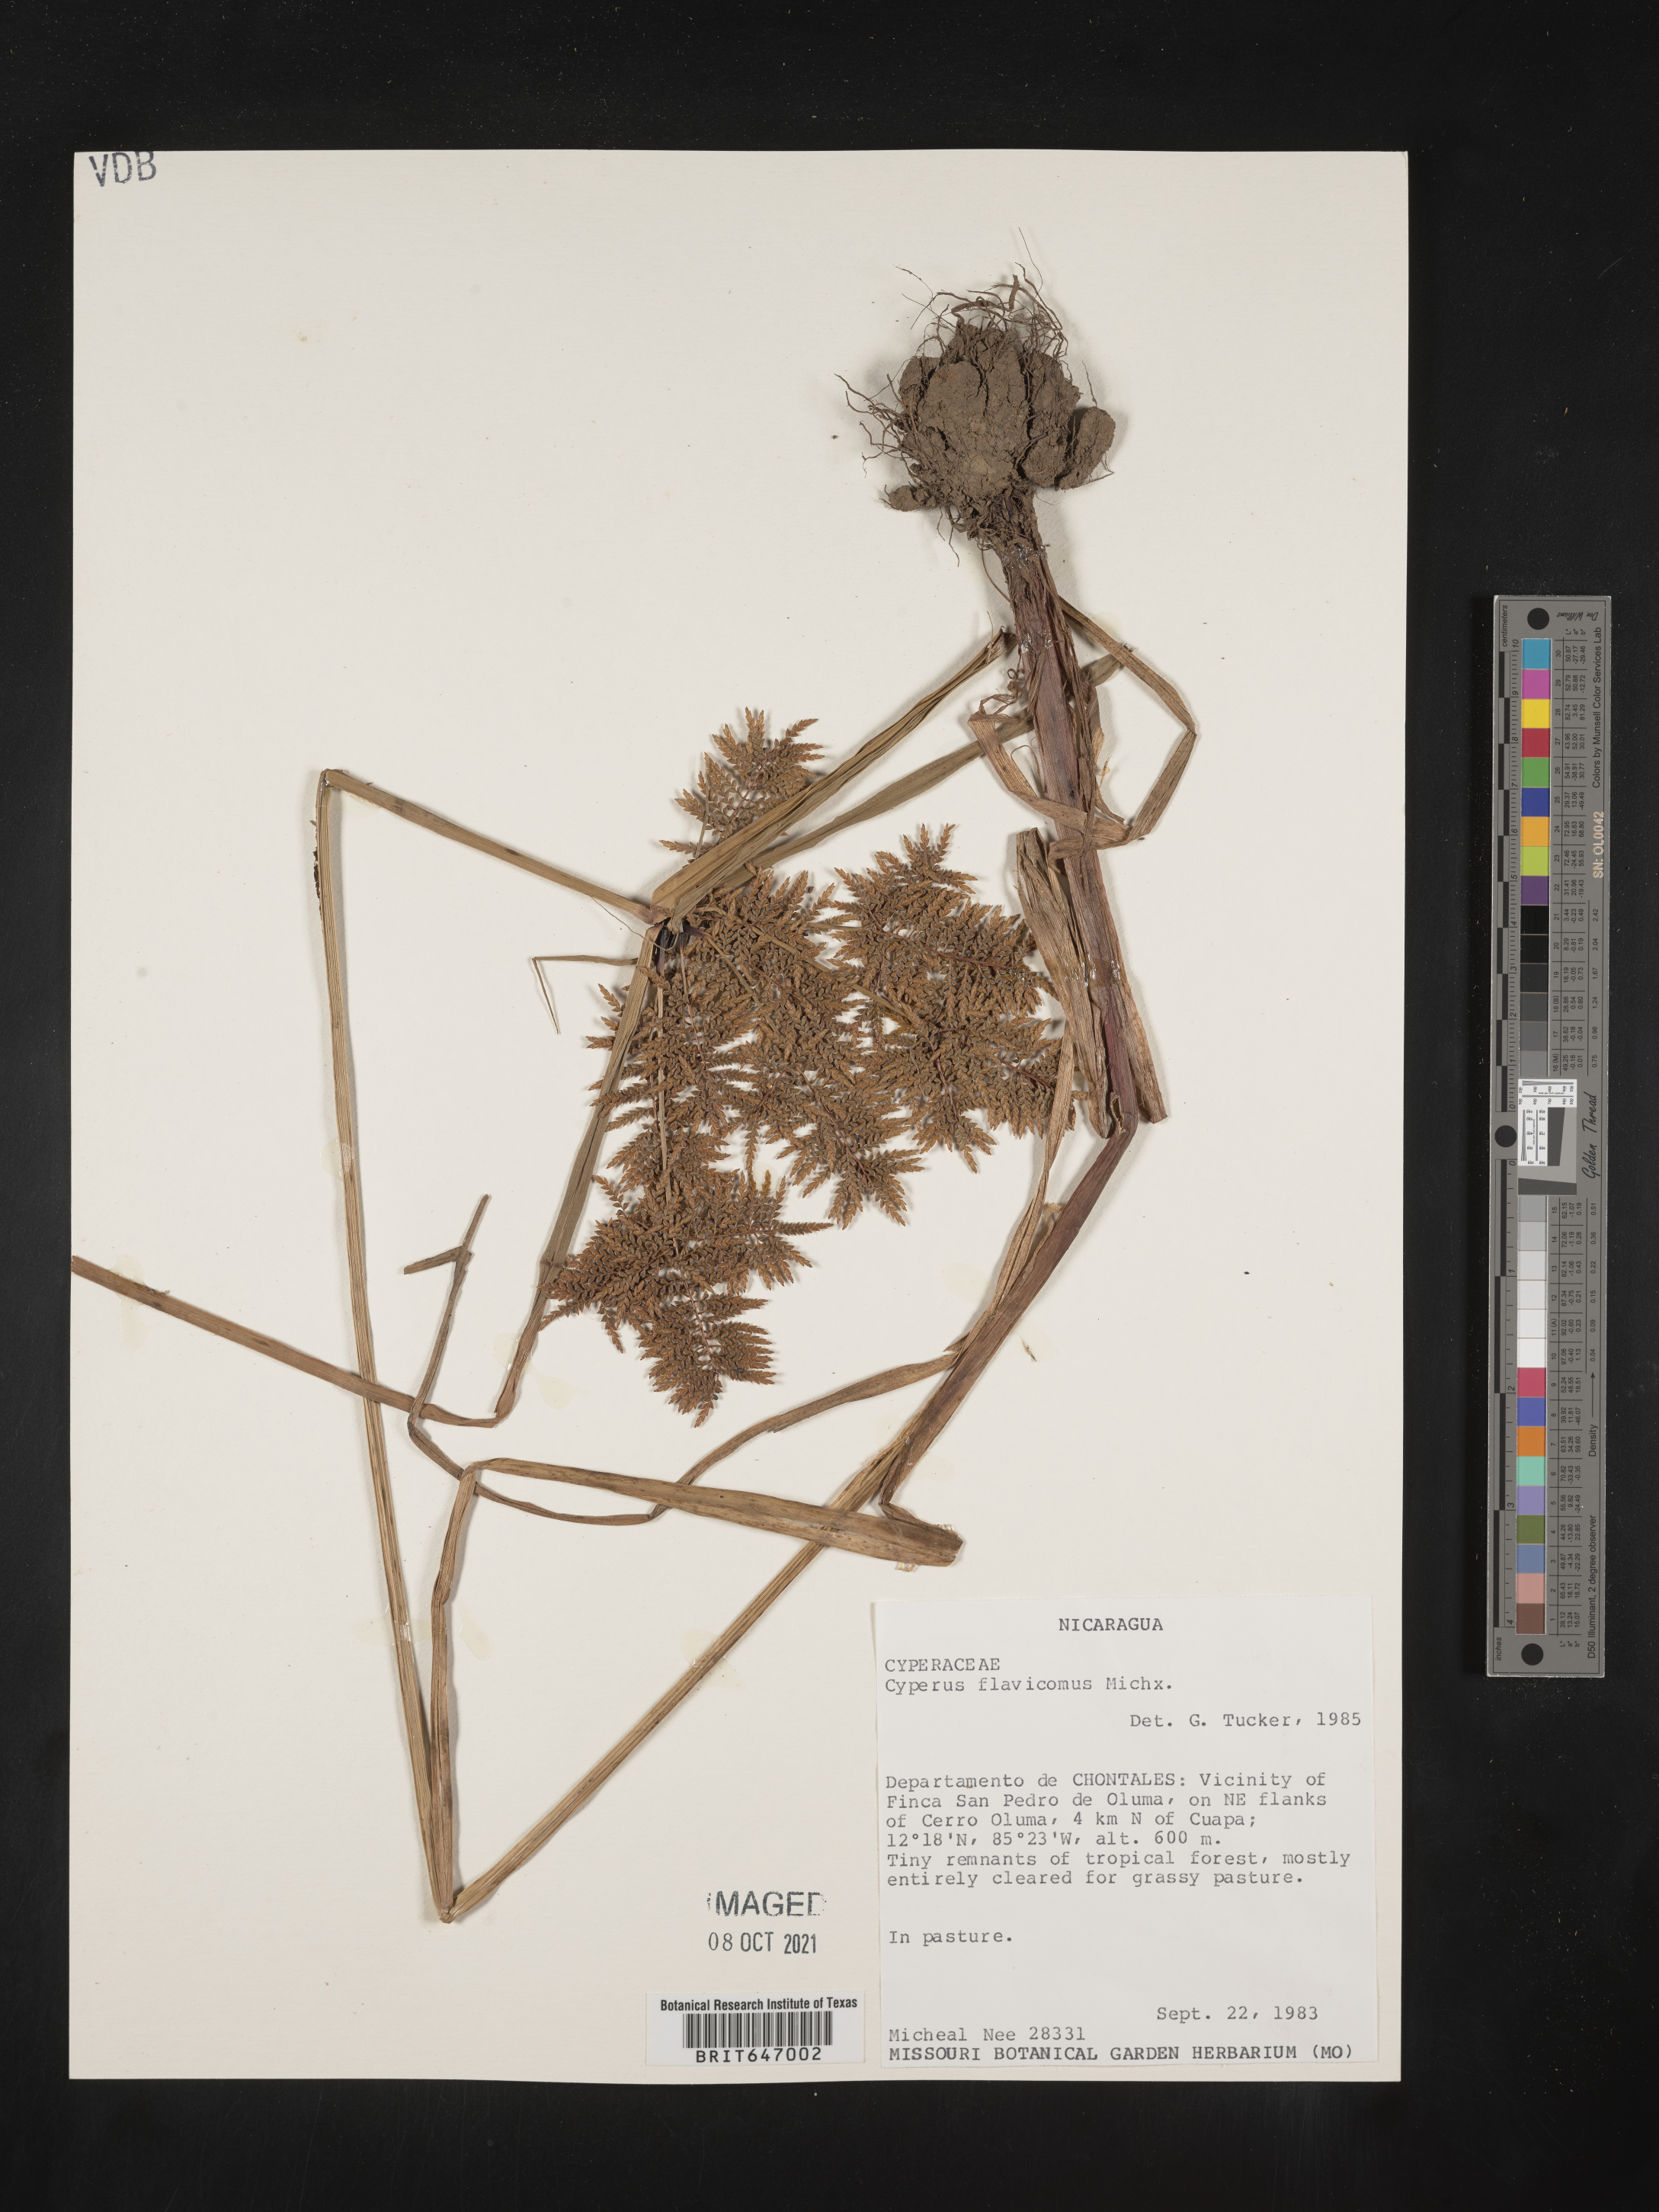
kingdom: Plantae
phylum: Tracheophyta
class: Liliopsida
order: Poales
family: Cyperaceae
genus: Cyperus
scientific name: Cyperus macrostachyos
